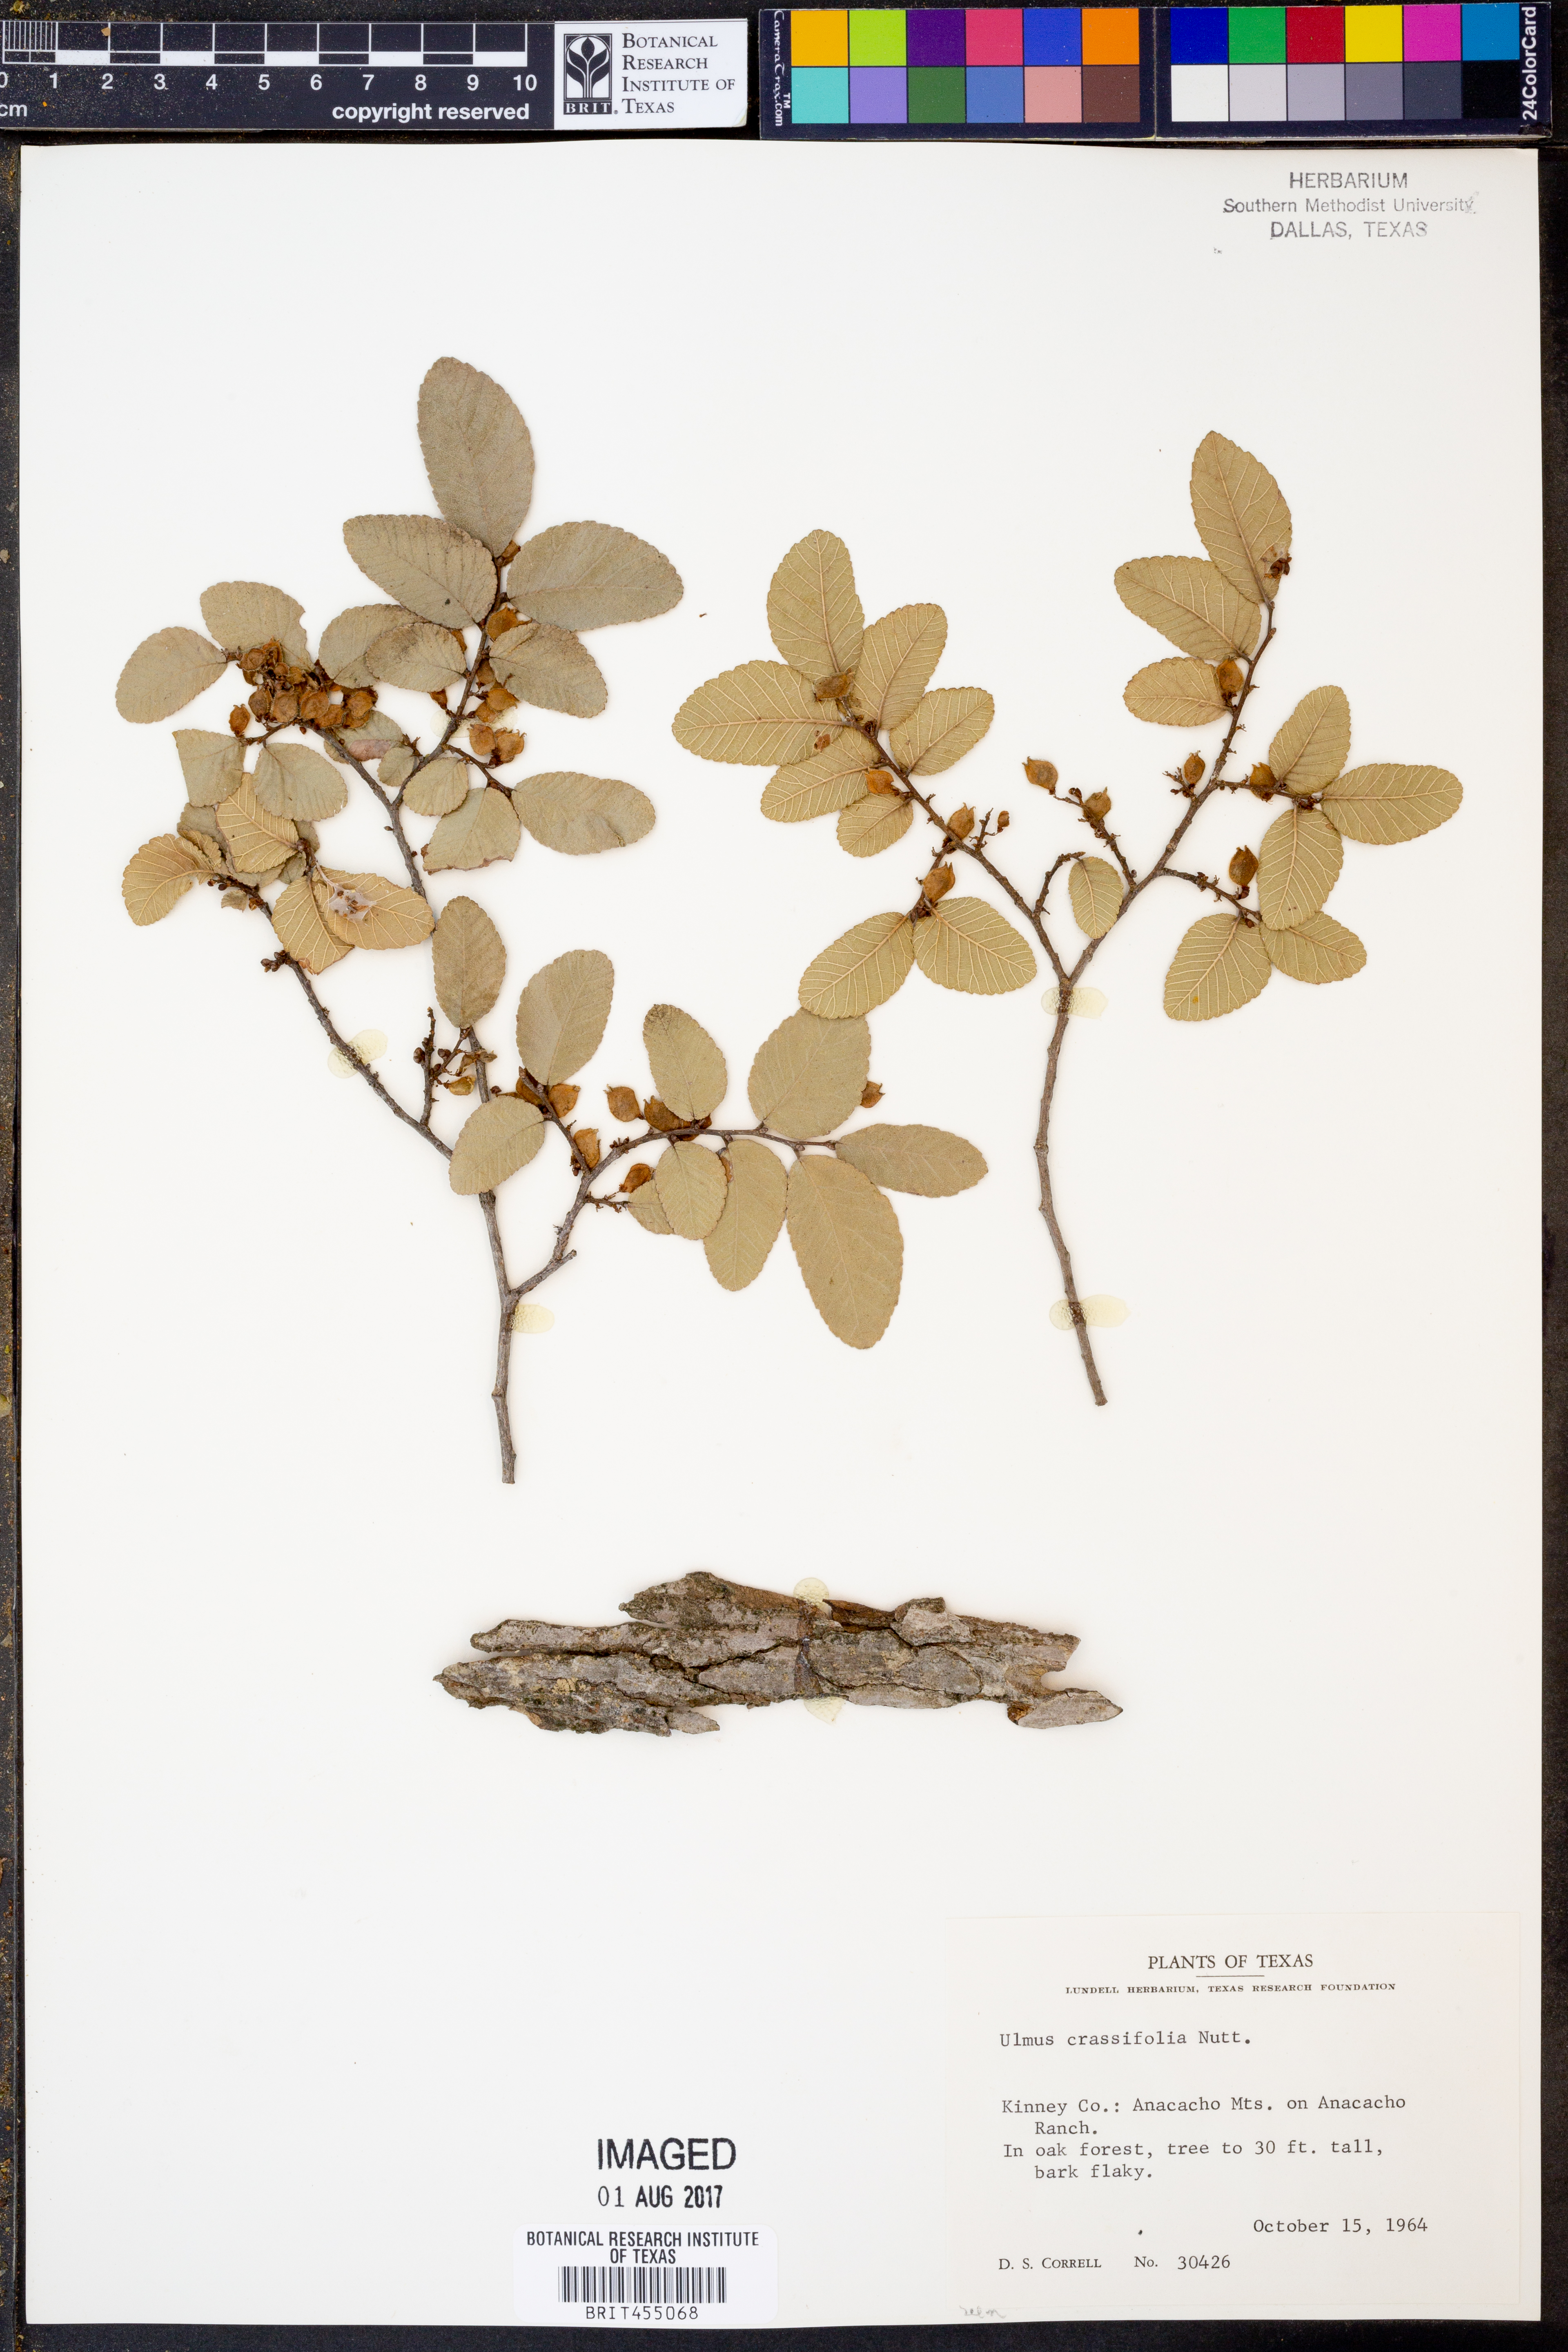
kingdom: Plantae
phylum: Tracheophyta
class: Magnoliopsida
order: Rosales
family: Ulmaceae
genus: Ulmus
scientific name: Ulmus crassifolia
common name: Basket elm
